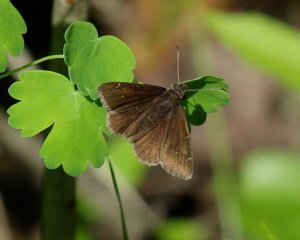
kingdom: Animalia
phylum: Arthropoda
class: Insecta
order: Lepidoptera
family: Hesperiidae
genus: Autochton
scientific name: Autochton
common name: Northern Cloudywing
